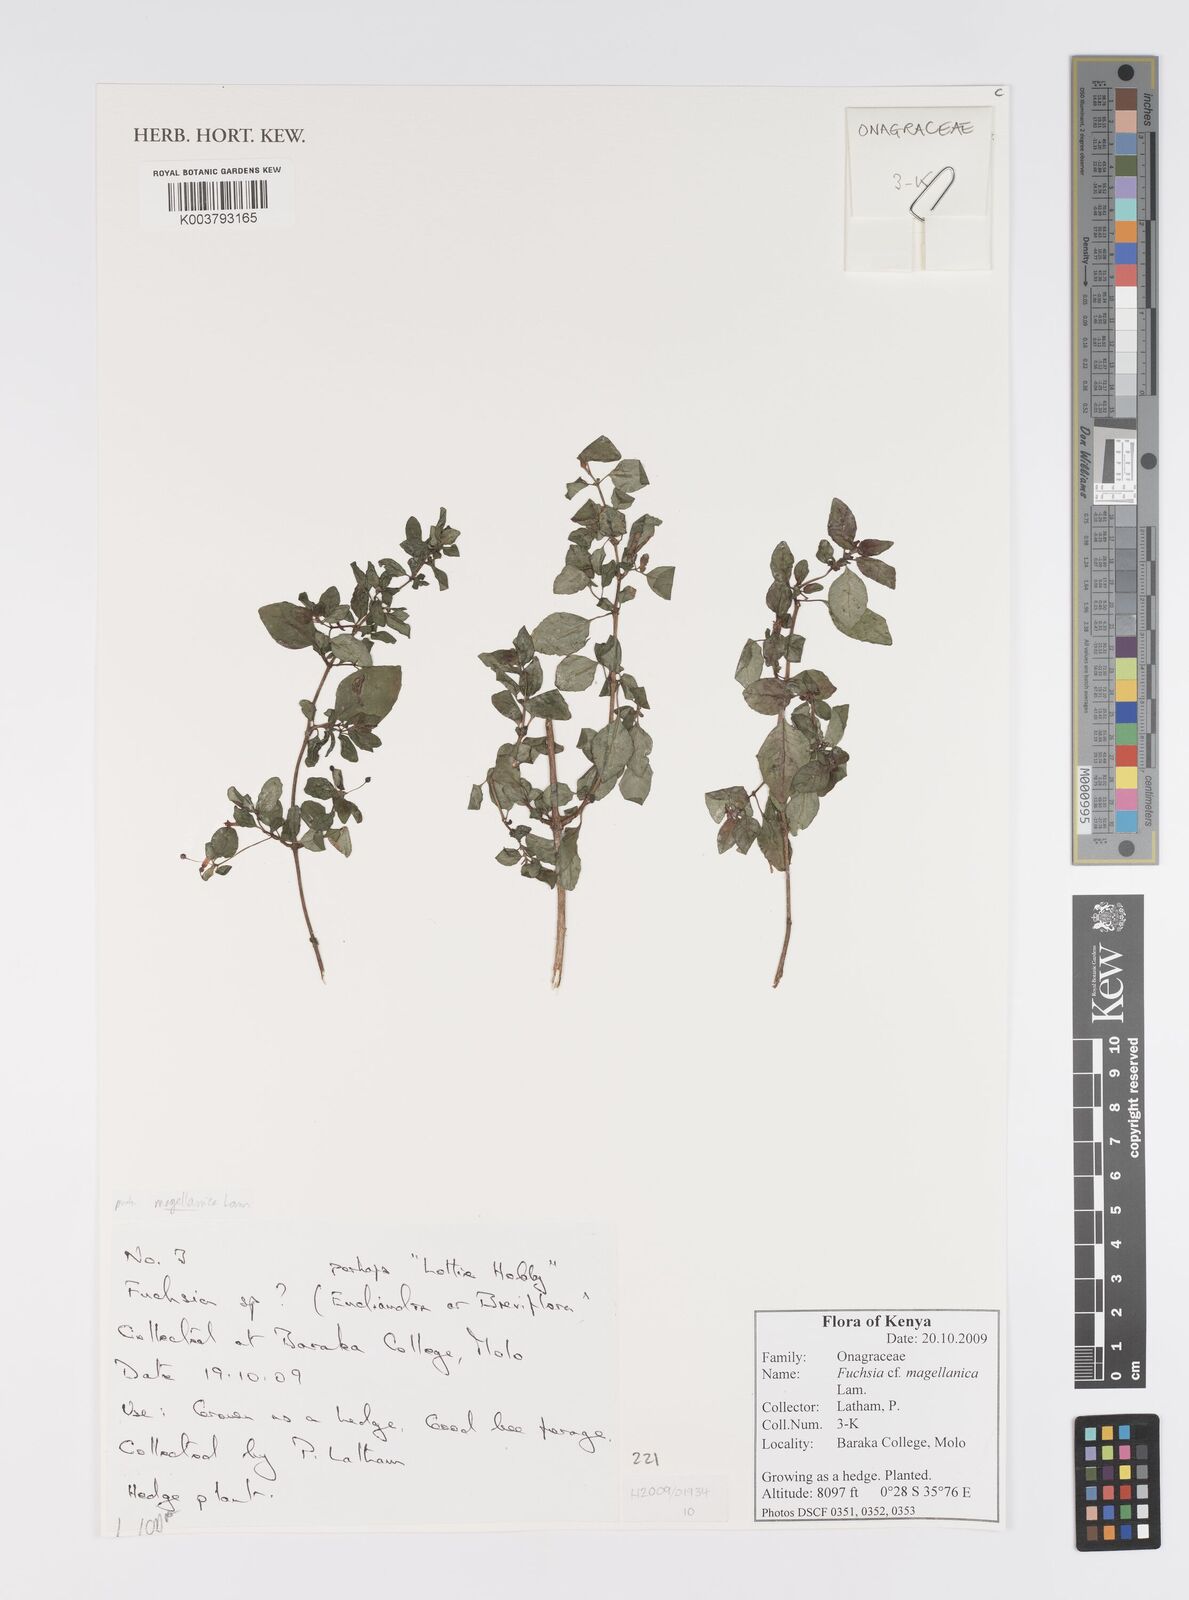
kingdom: Plantae
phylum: Tracheophyta
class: Magnoliopsida
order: Myrtales
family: Onagraceae
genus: Fuchsia
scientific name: Fuchsia magellanica
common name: Hardy fuchsia
